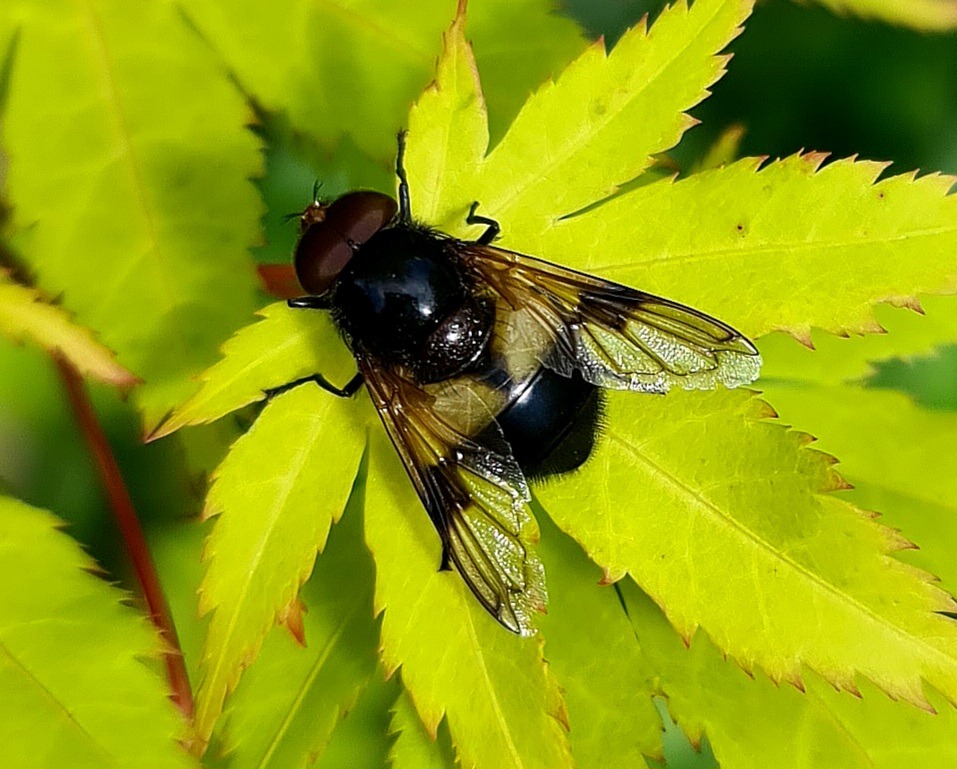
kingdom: Animalia
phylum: Arthropoda
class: Insecta
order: Diptera
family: Syrphidae
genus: Volucella
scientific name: Volucella pellucens
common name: Hvidbåndet humlesvirreflue
